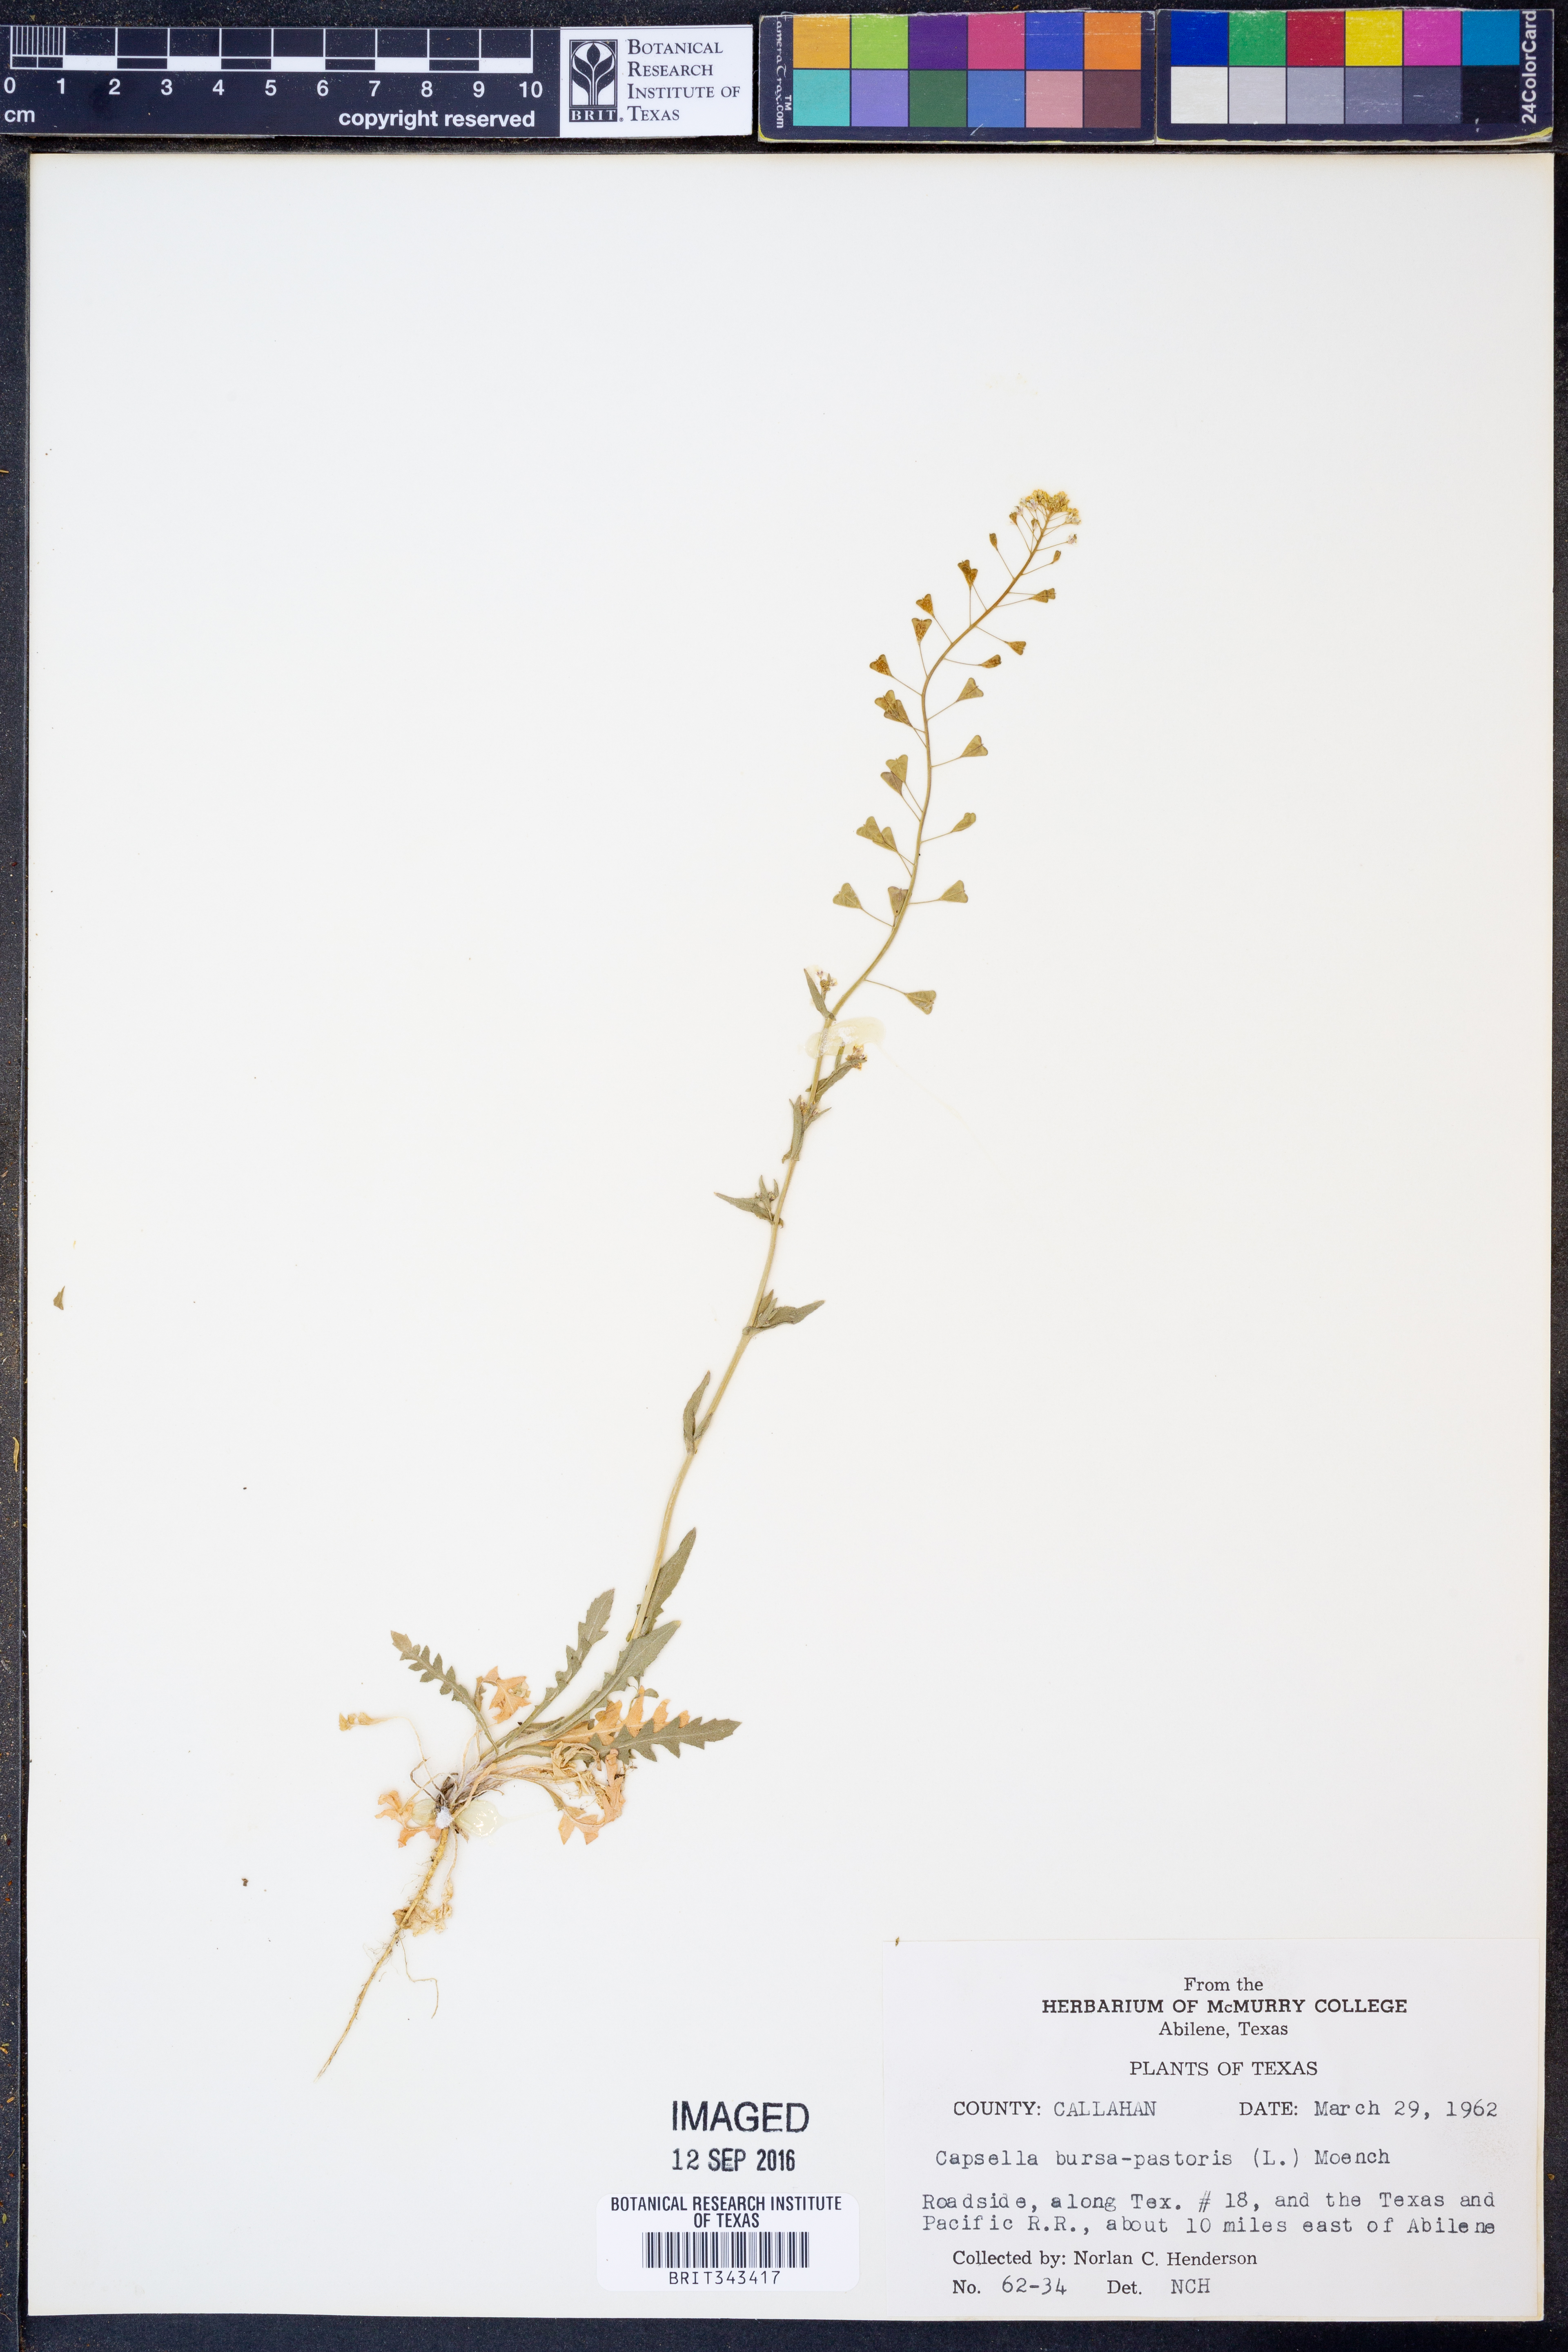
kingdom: Plantae
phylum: Tracheophyta
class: Magnoliopsida
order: Brassicales
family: Brassicaceae
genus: Capsella
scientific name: Capsella bursa-pastoris
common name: Shepherd's purse
